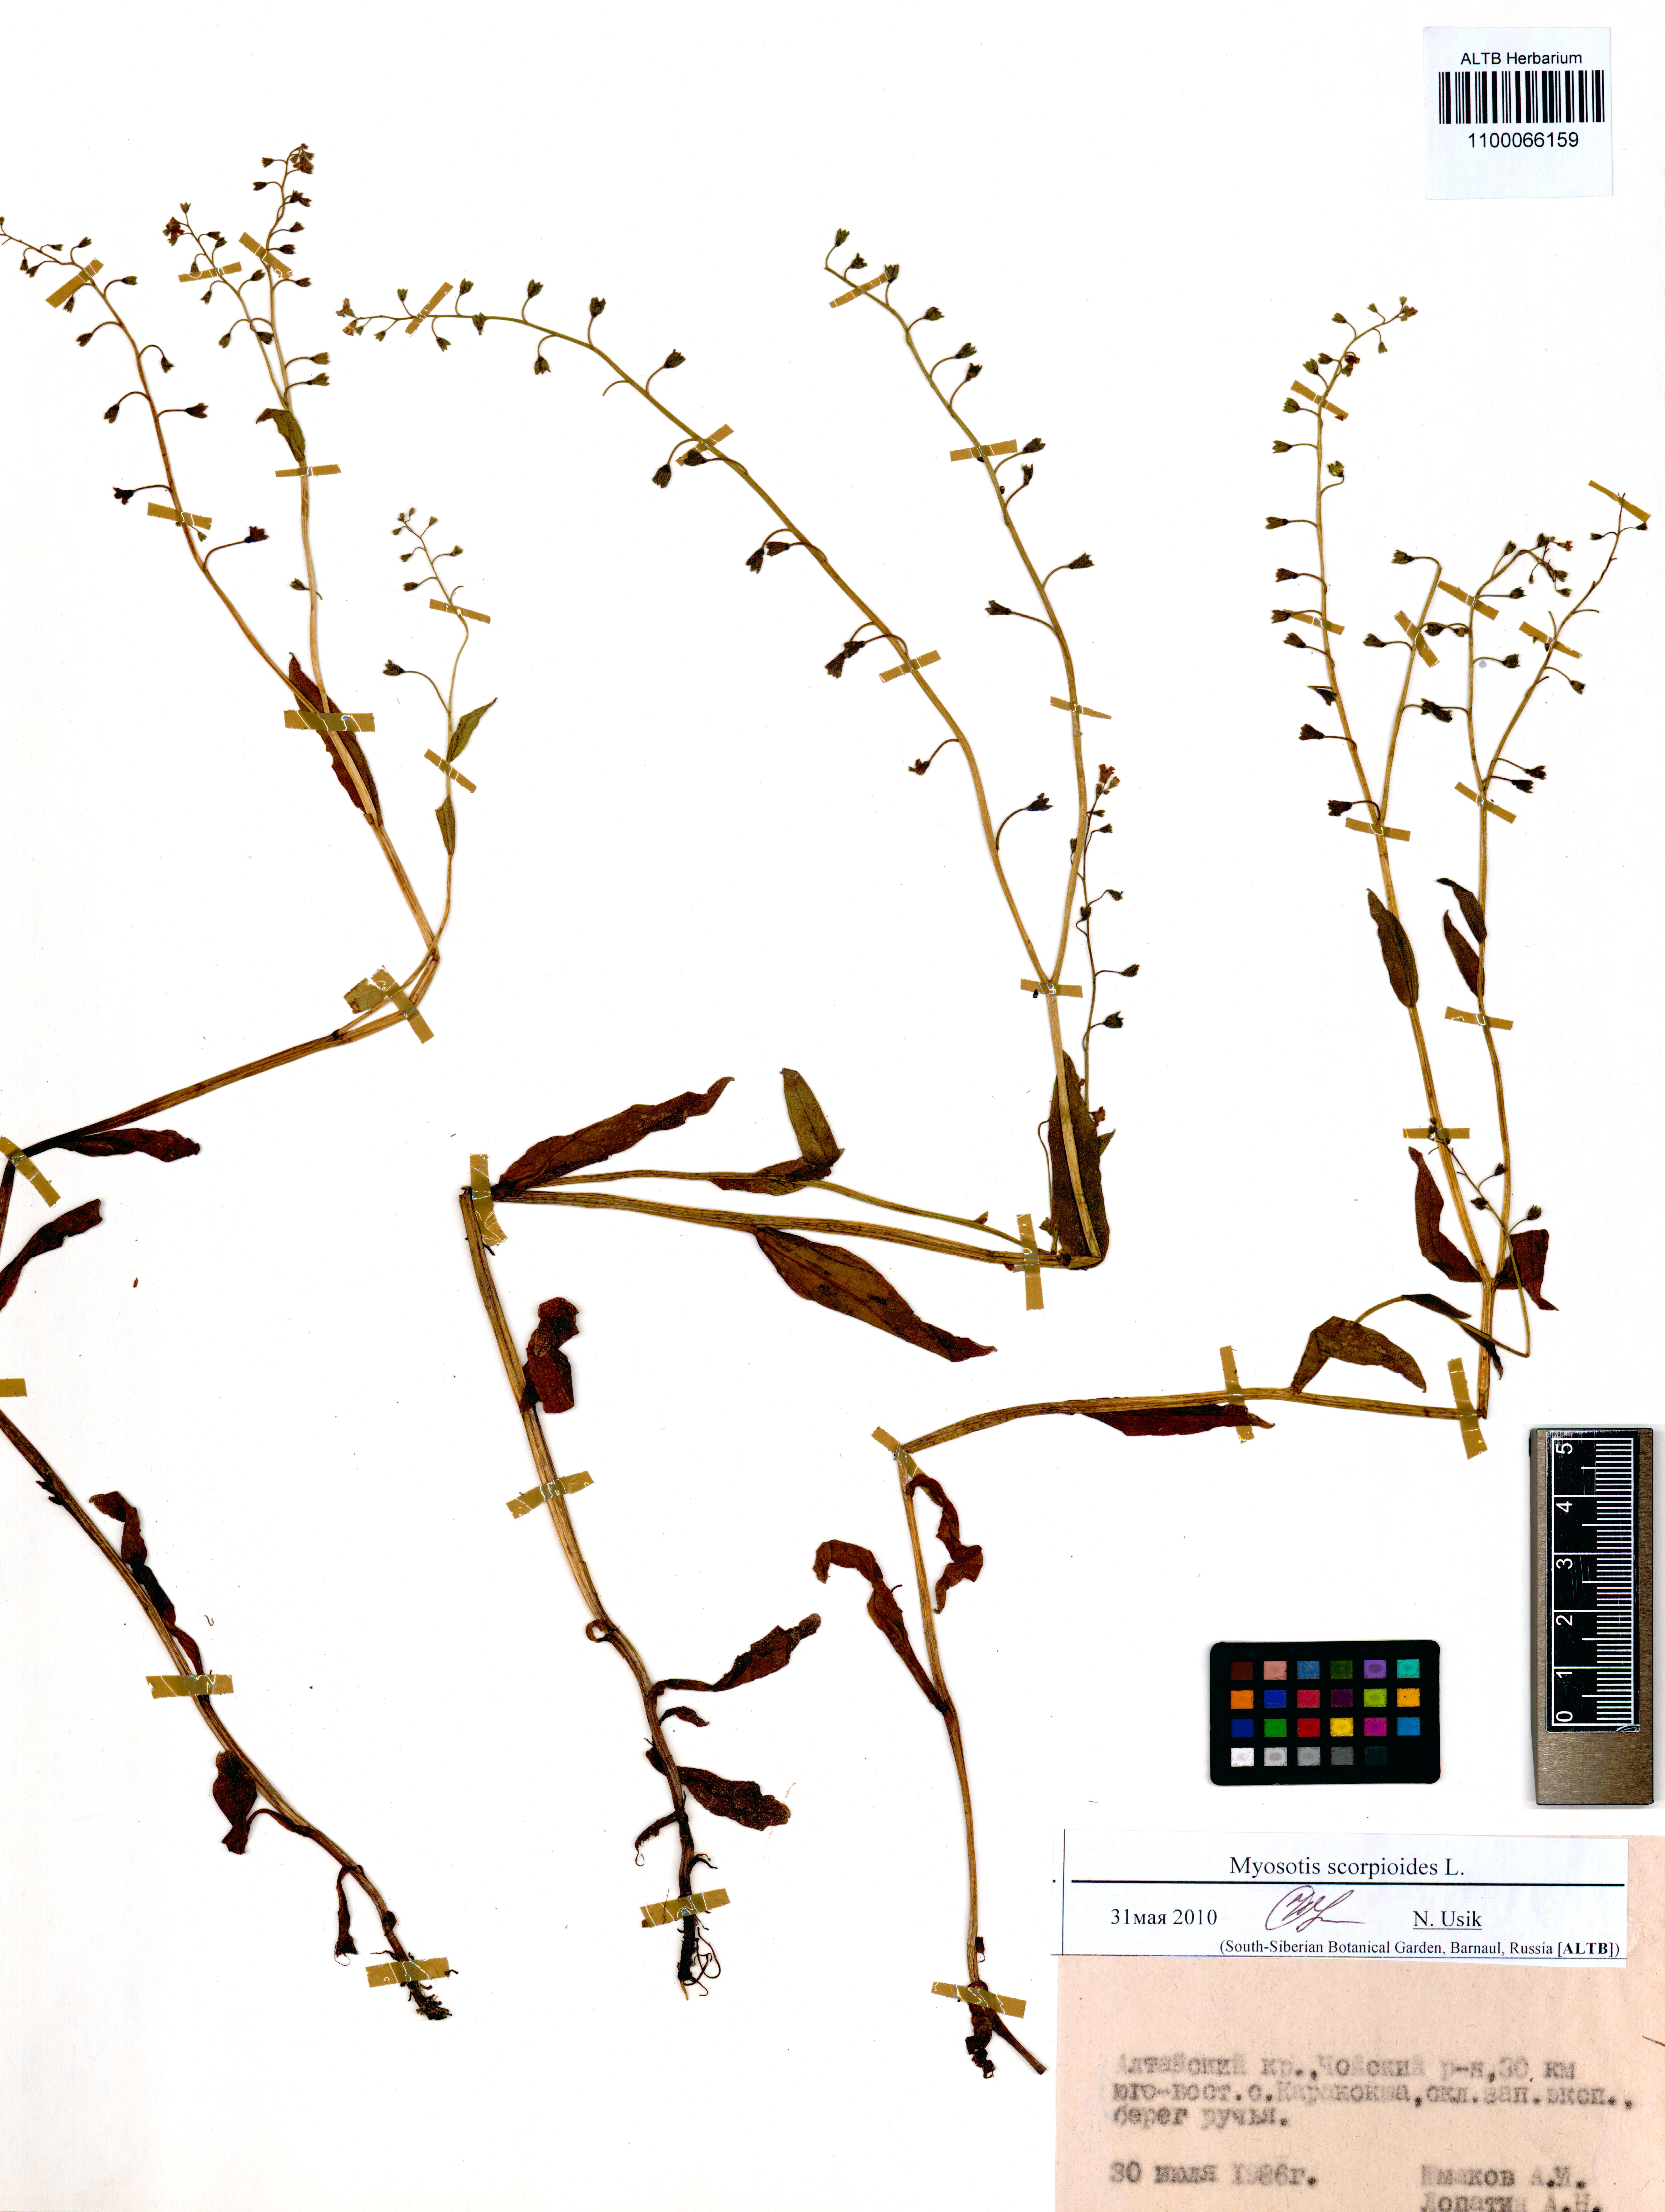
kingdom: Plantae
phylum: Tracheophyta
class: Magnoliopsida
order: Boraginales
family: Boraginaceae
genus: Myosotis
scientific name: Myosotis scorpioides
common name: Water forget-me-not
